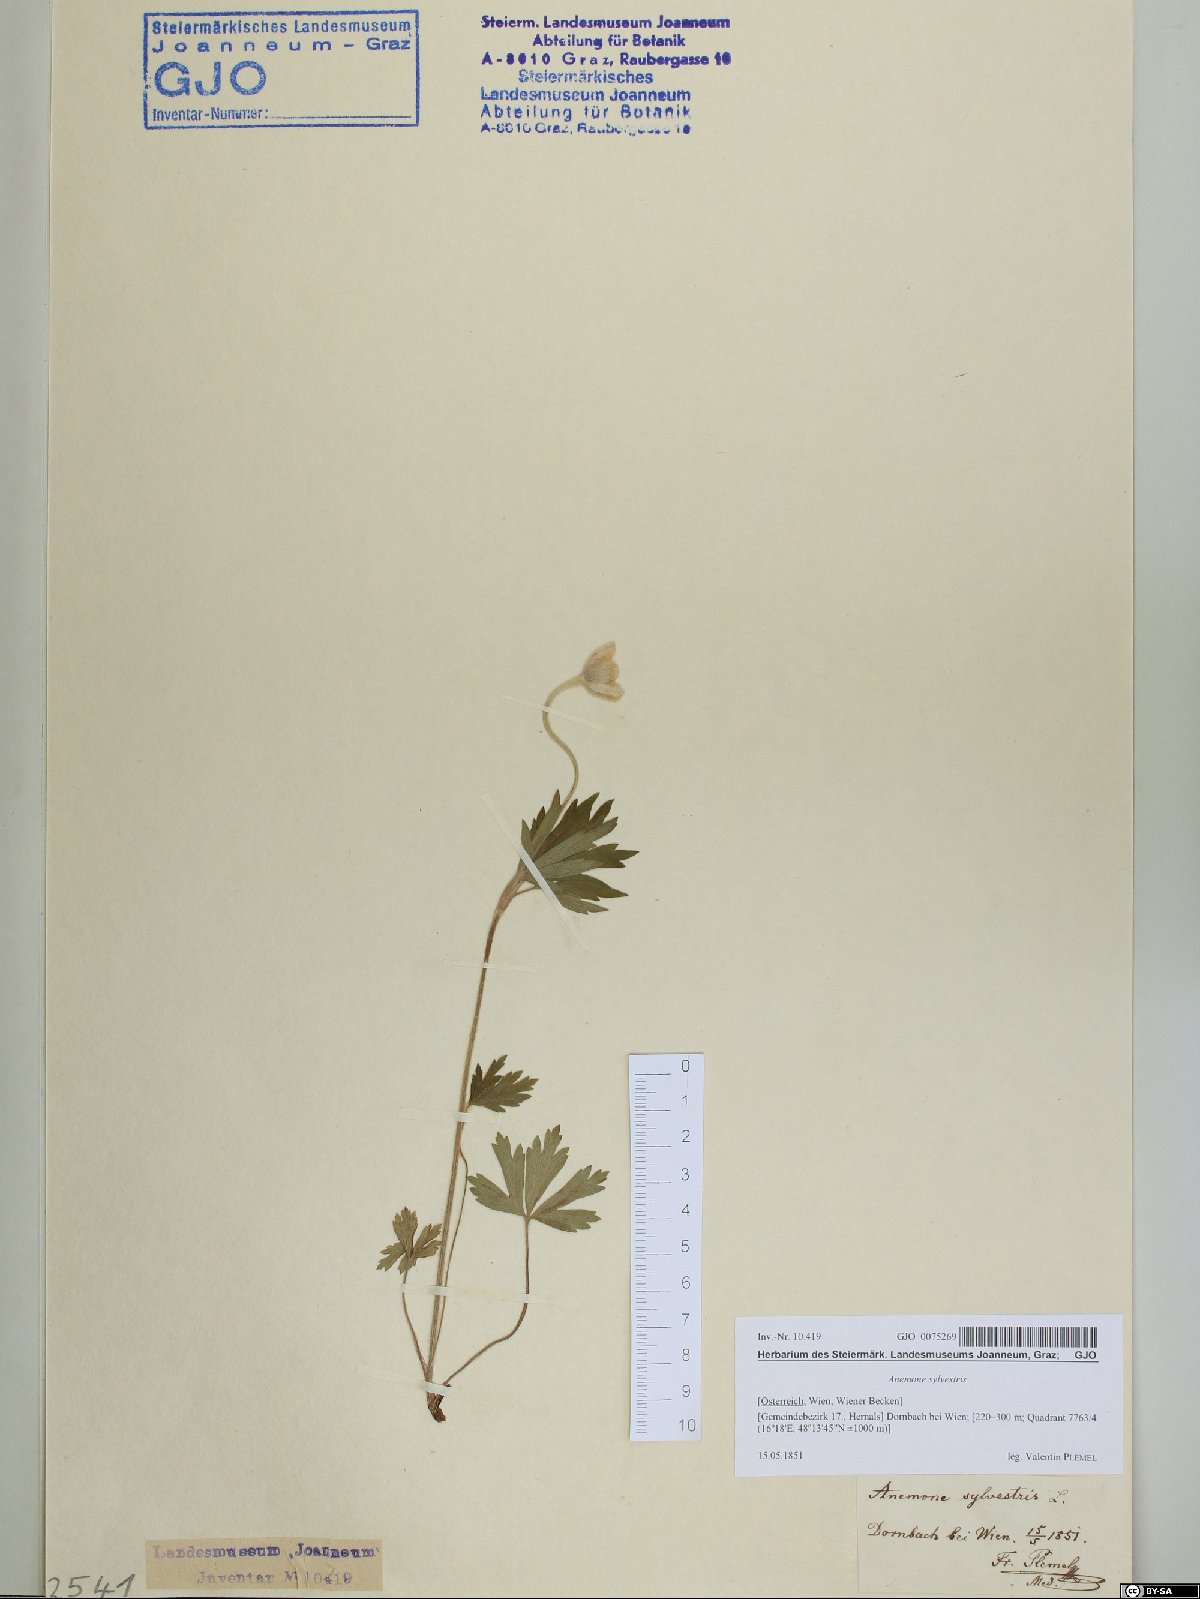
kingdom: Plantae
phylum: Tracheophyta
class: Magnoliopsida
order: Ranunculales
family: Ranunculaceae
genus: Anemone
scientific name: Anemone sylvestris
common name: Snowdrop anemone
